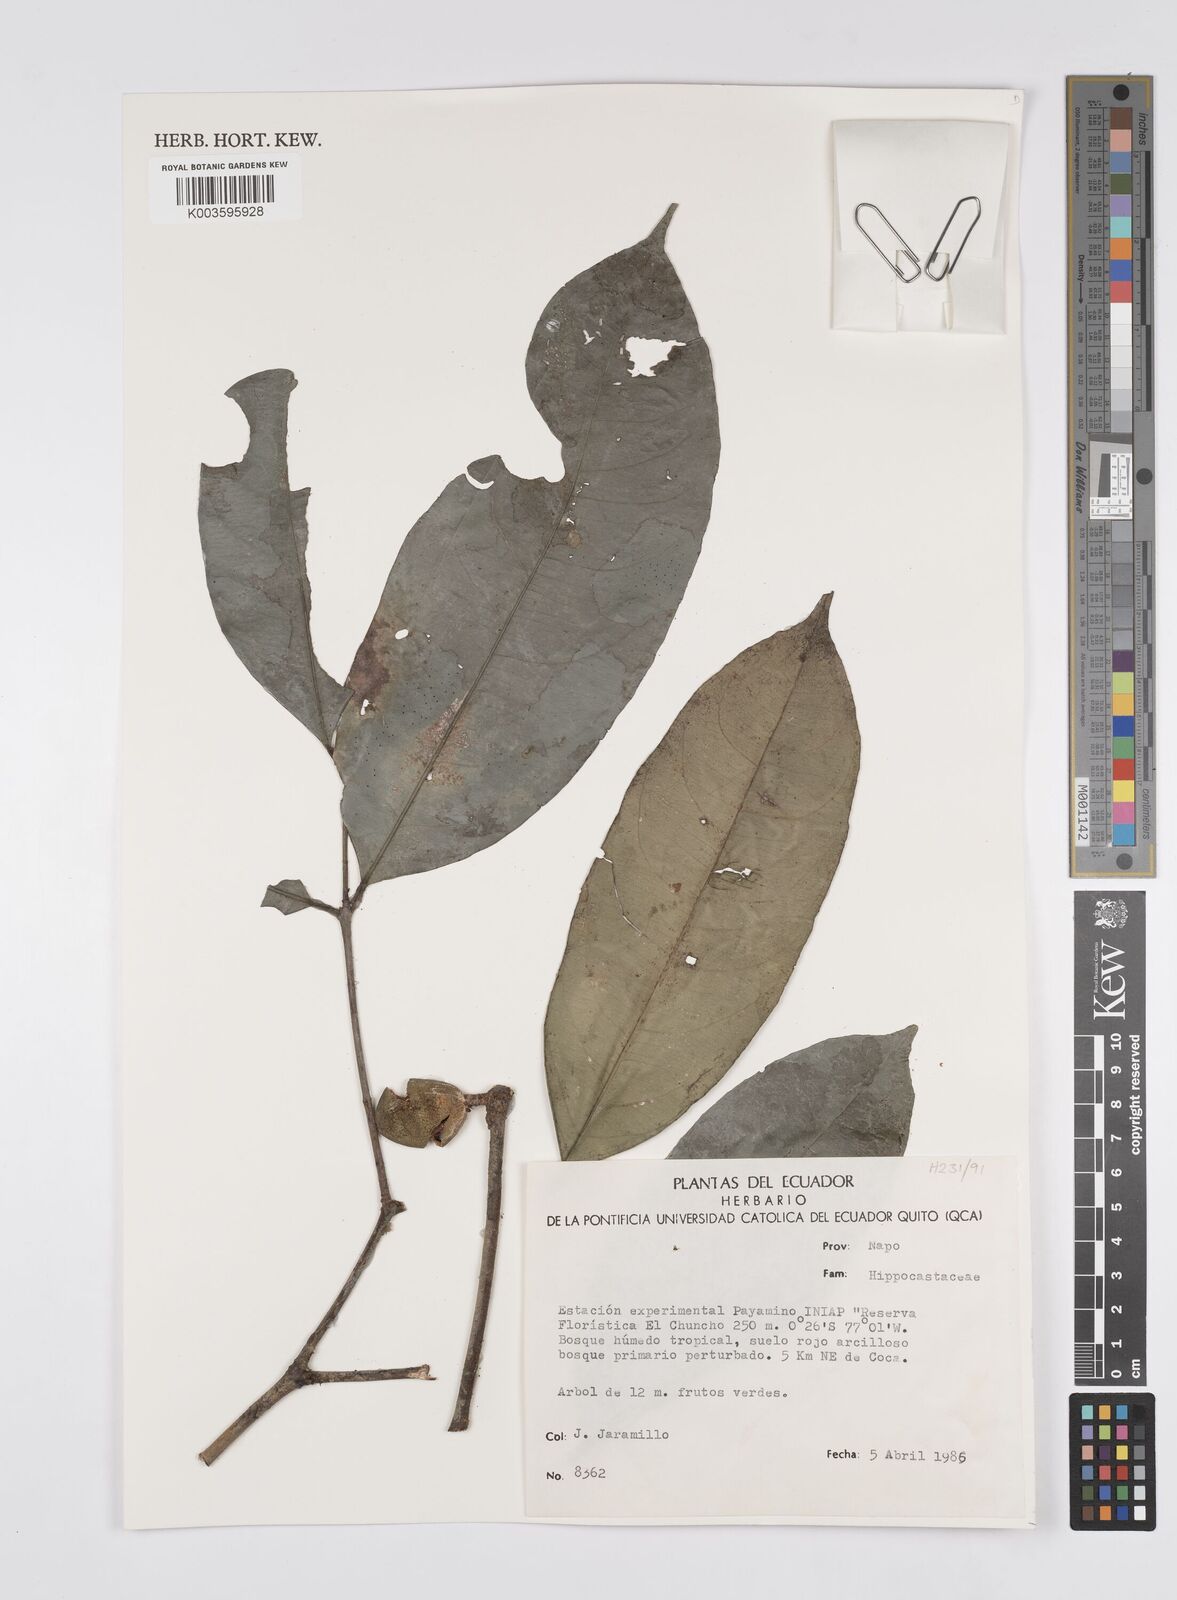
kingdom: Plantae
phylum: Tracheophyta
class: Magnoliopsida
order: Sapindales
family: Sapindaceae
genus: Billia
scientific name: Billia
